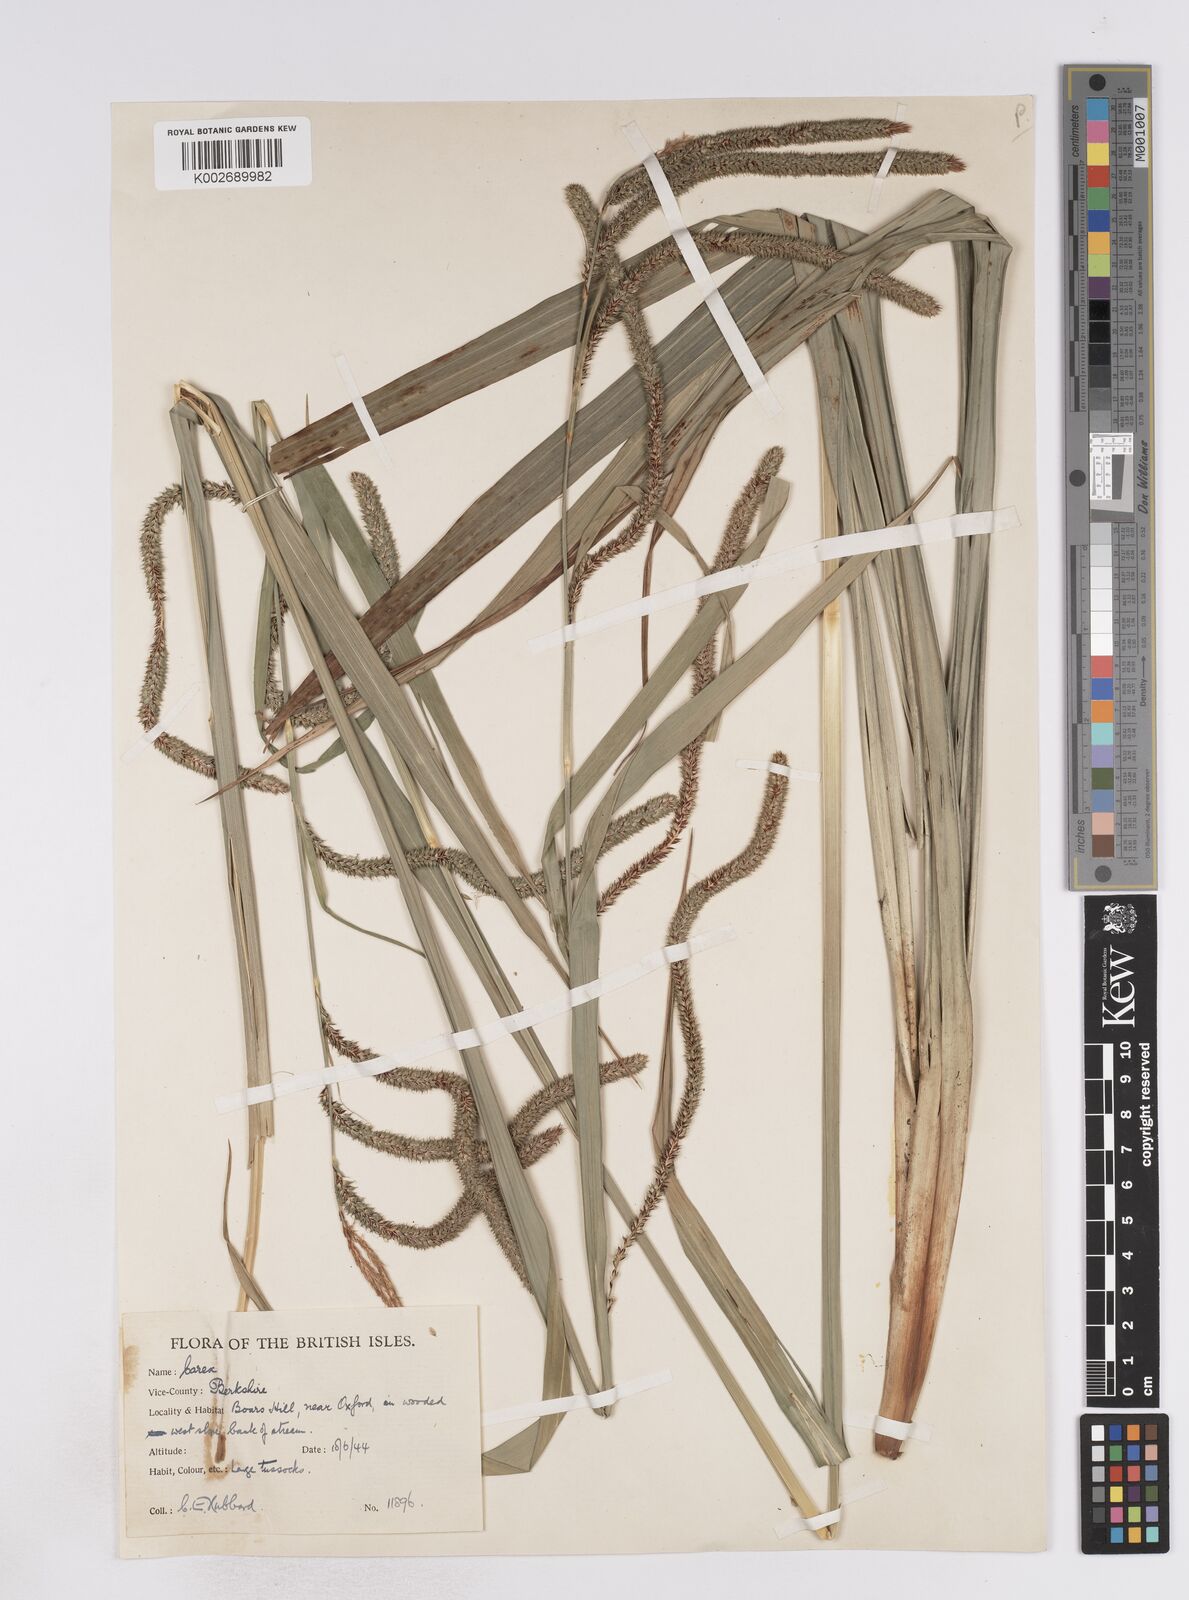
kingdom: Plantae
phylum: Tracheophyta
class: Liliopsida
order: Poales
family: Cyperaceae
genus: Carex
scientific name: Carex pendula
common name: Pendulous sedge
